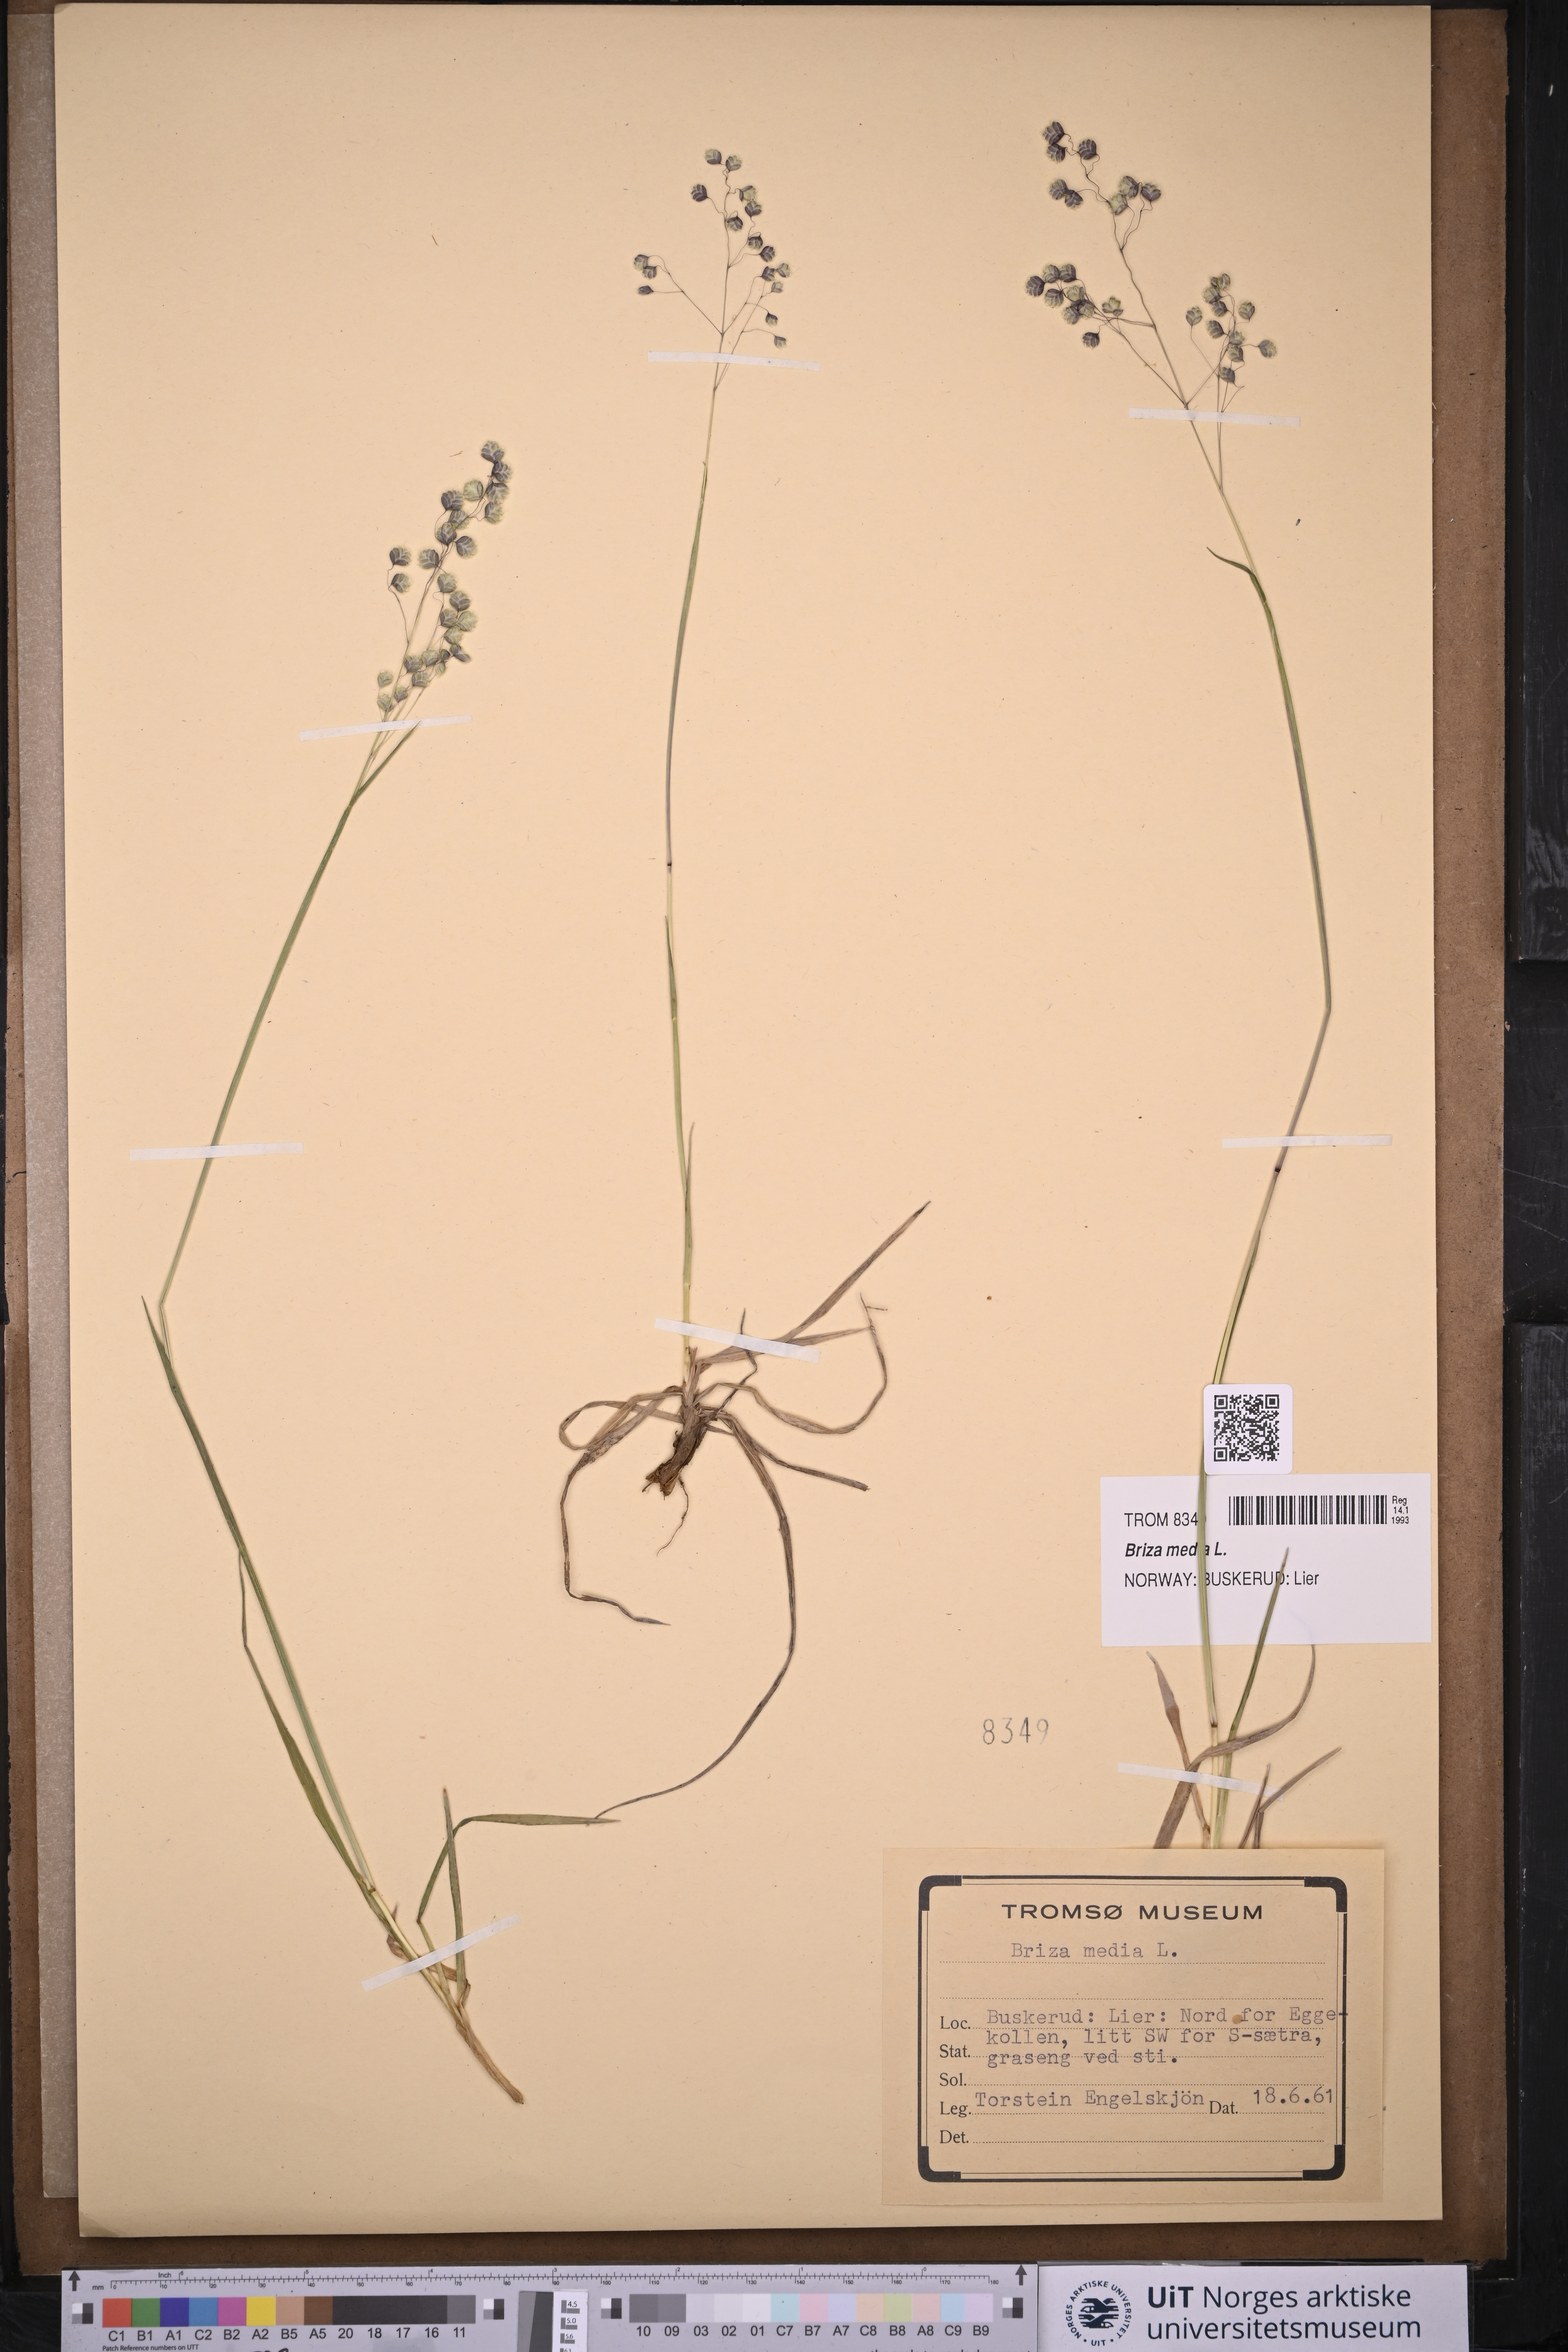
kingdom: Plantae
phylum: Tracheophyta
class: Liliopsida
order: Poales
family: Poaceae
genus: Briza
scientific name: Briza media
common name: Quaking grass
